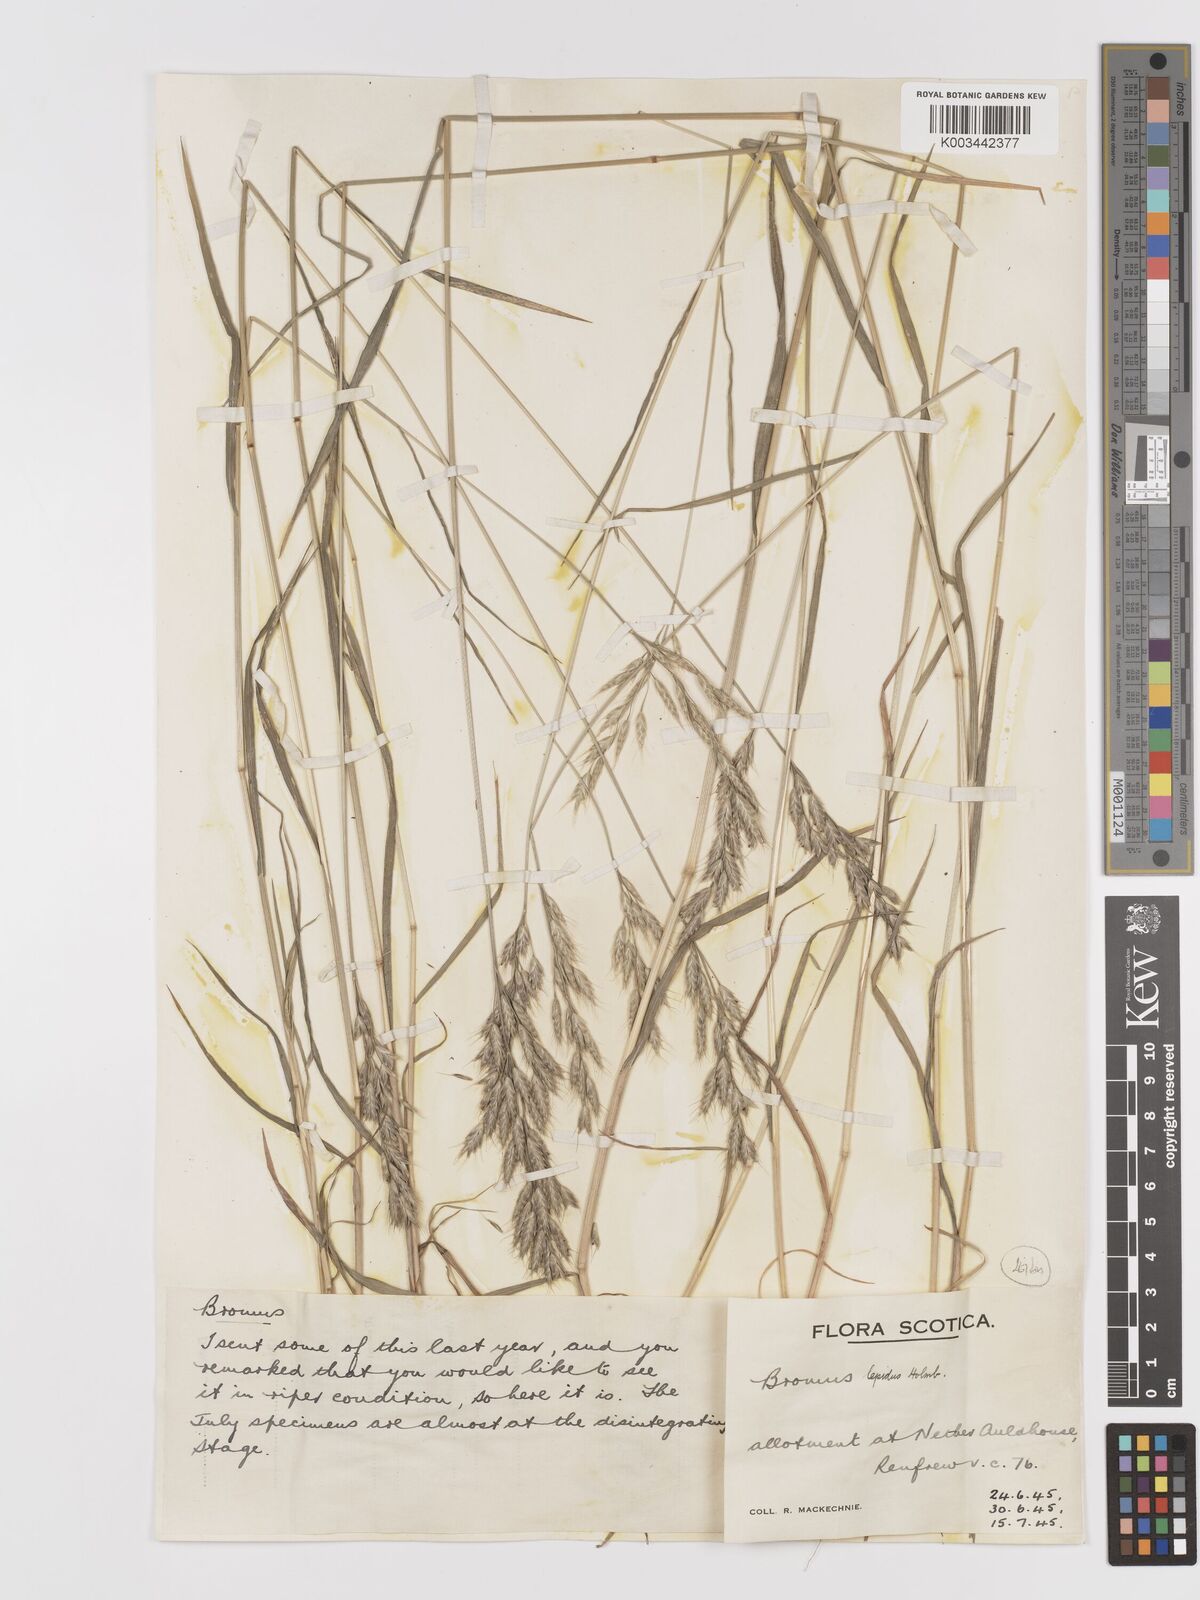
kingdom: Plantae
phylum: Tracheophyta
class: Liliopsida
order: Poales
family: Poaceae
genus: Bromus
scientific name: Bromus lepidus
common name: Slender soft-brome
